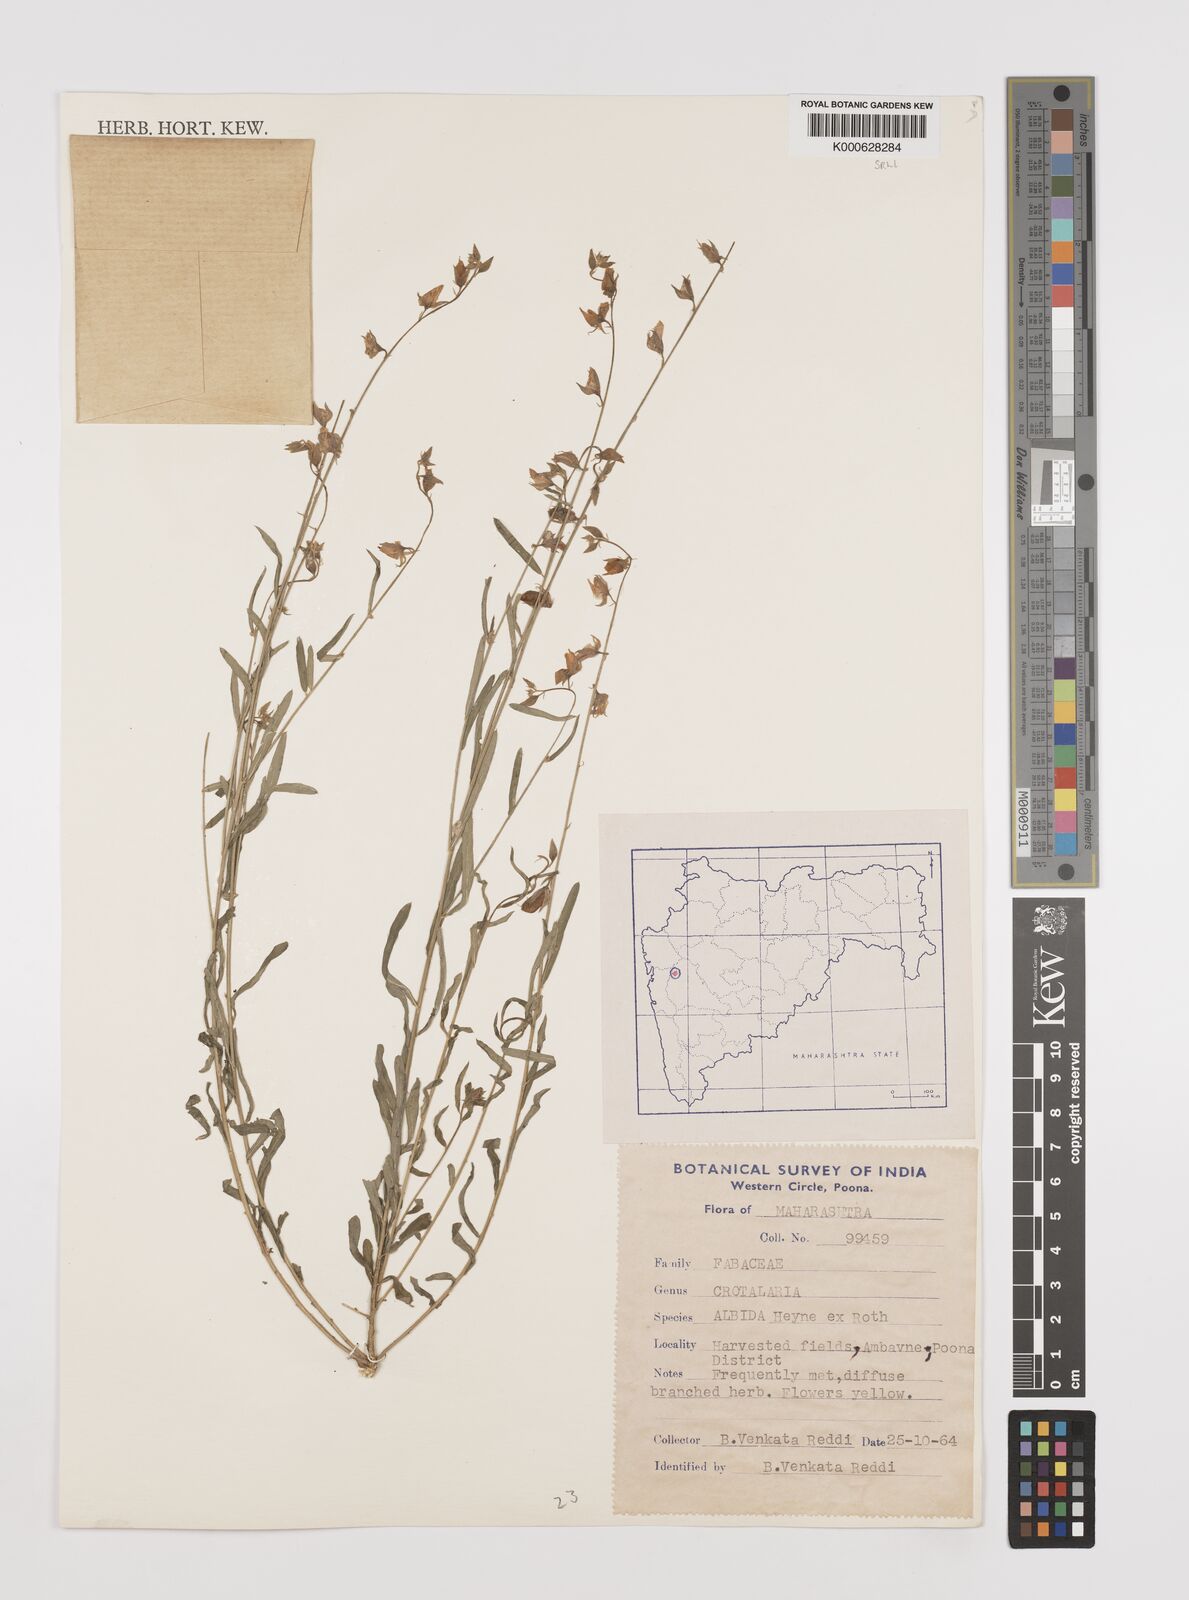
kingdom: Plantae
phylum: Tracheophyta
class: Magnoliopsida
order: Fabales
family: Fabaceae
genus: Crotalaria
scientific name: Crotalaria albida
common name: Taiwan crotalaria
